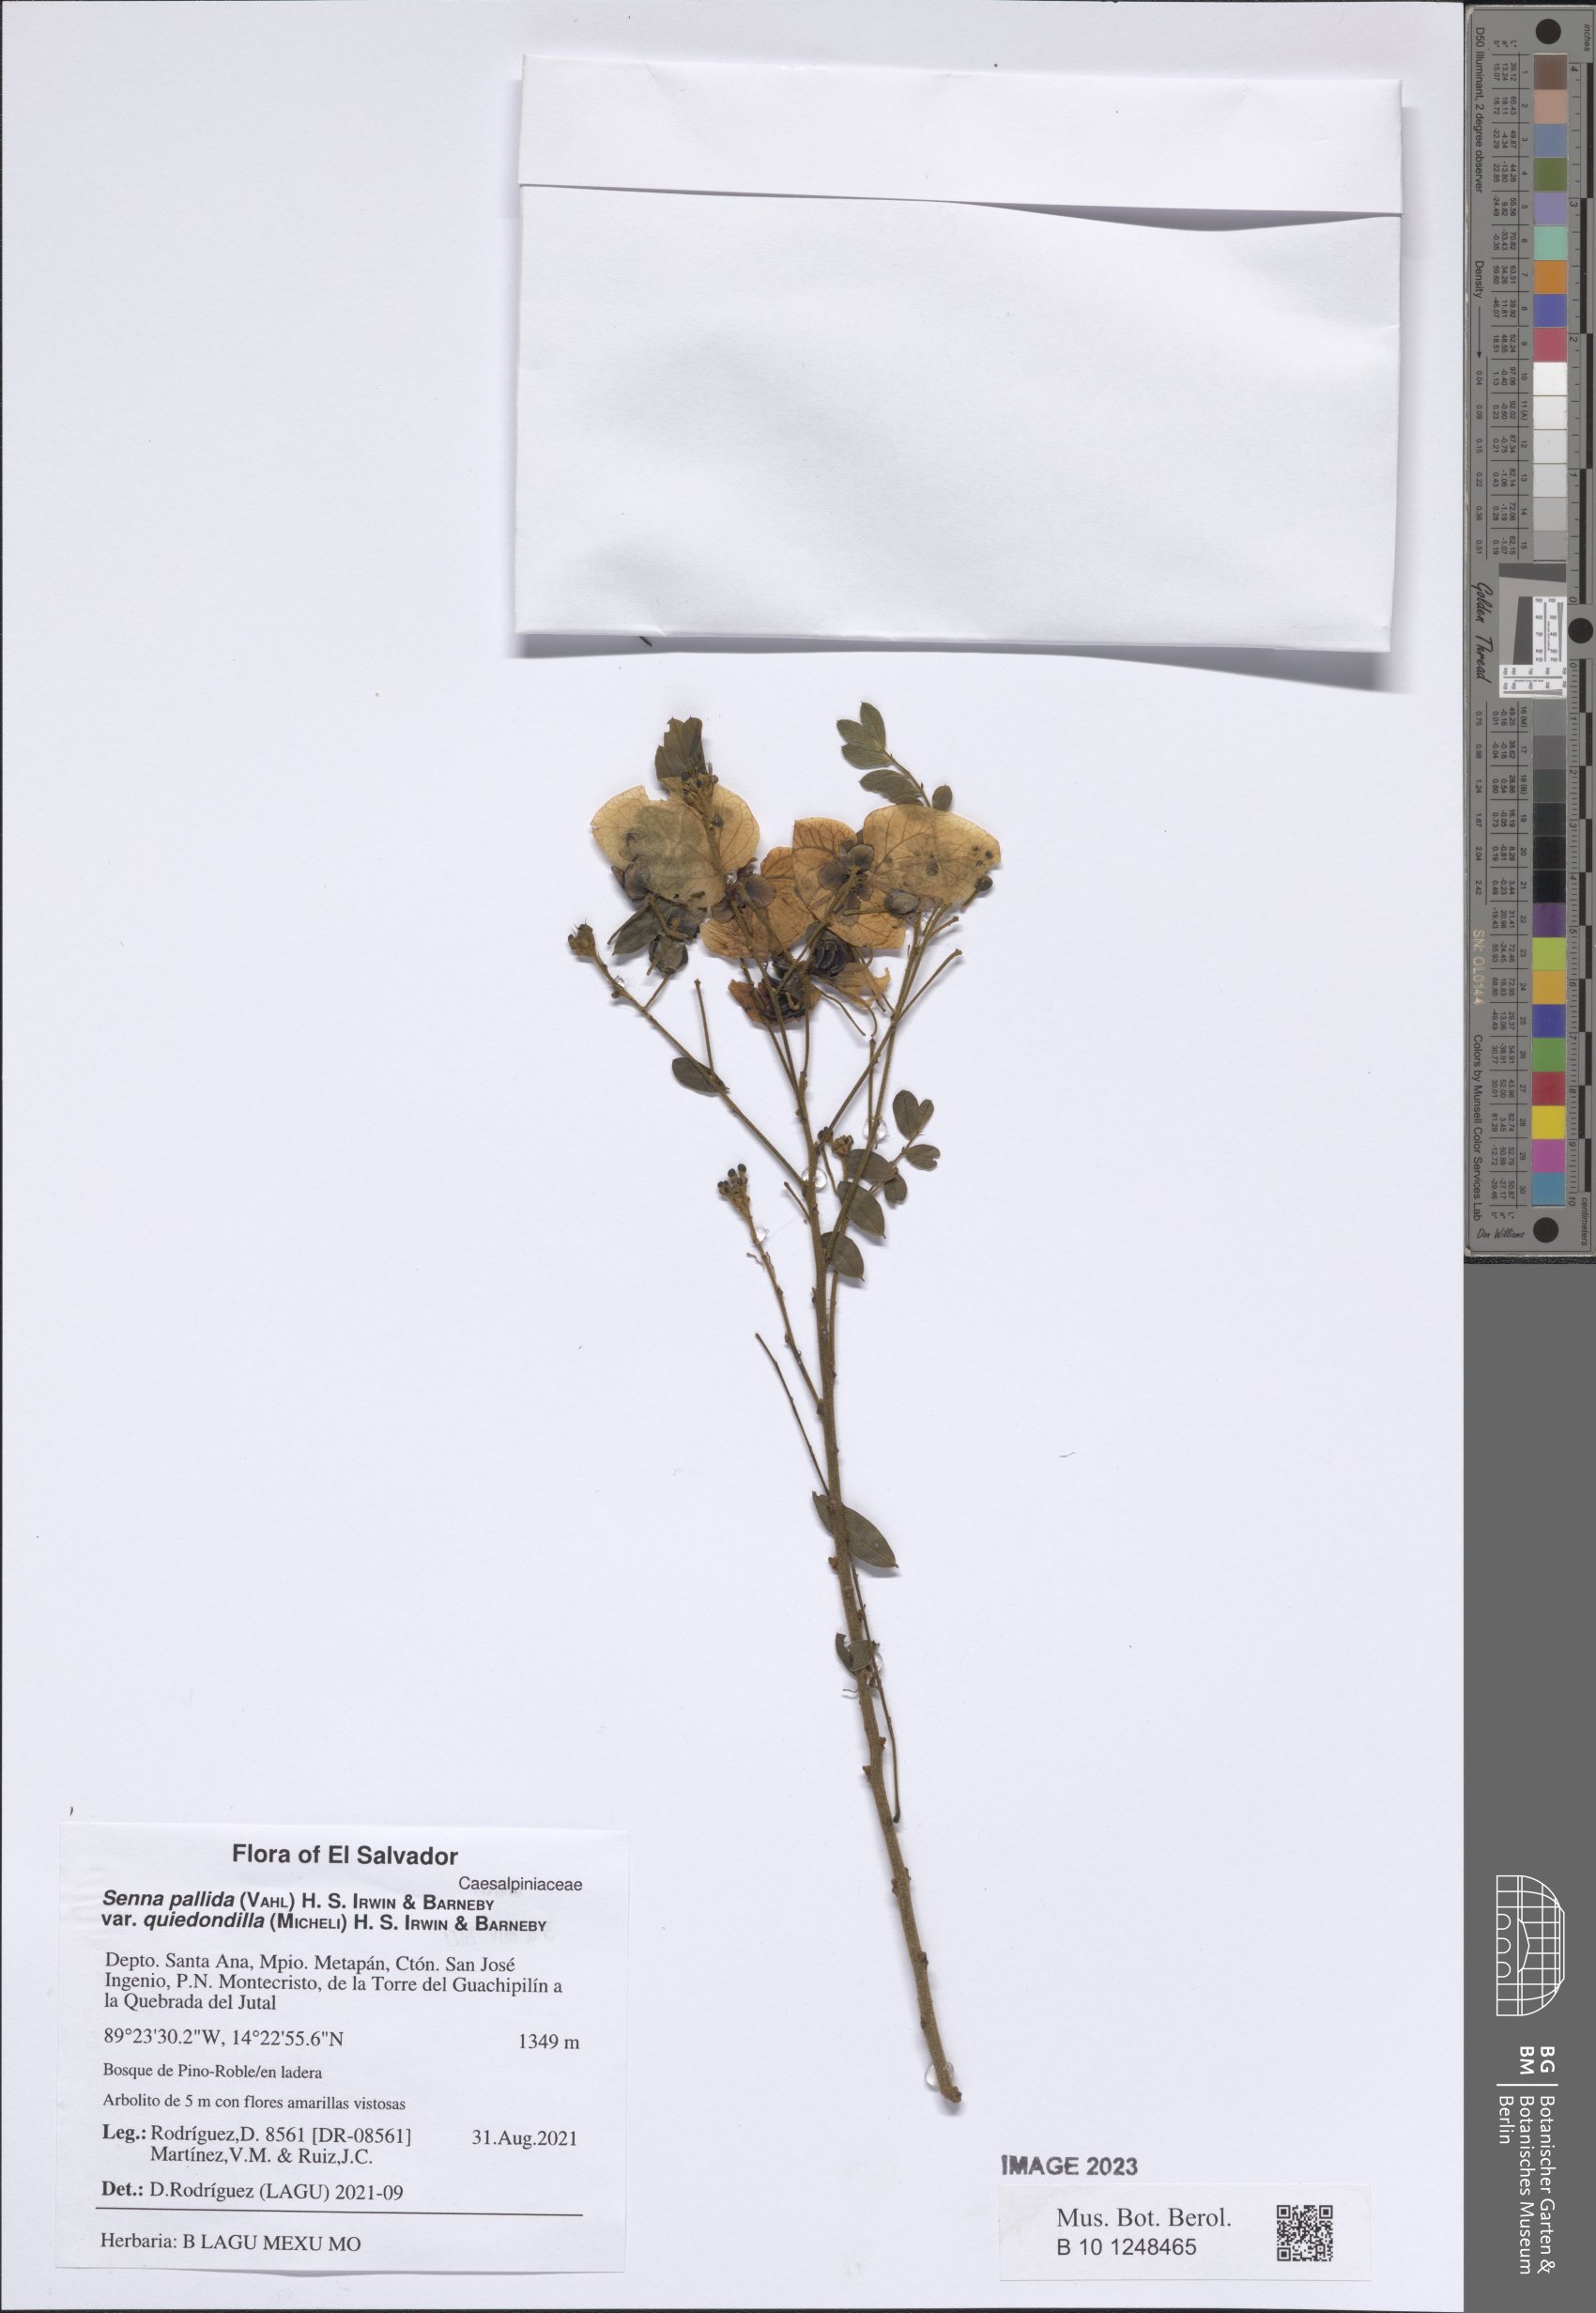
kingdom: Plantae
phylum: Tracheophyta
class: Magnoliopsida
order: Fabales
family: Fabaceae
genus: Senna
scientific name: Senna pallida
